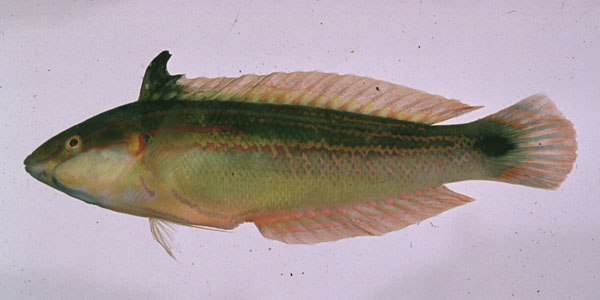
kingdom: Animalia
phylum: Chordata
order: Perciformes
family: Labridae
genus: Coris
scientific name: Coris caudimacula
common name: Spottail coris
